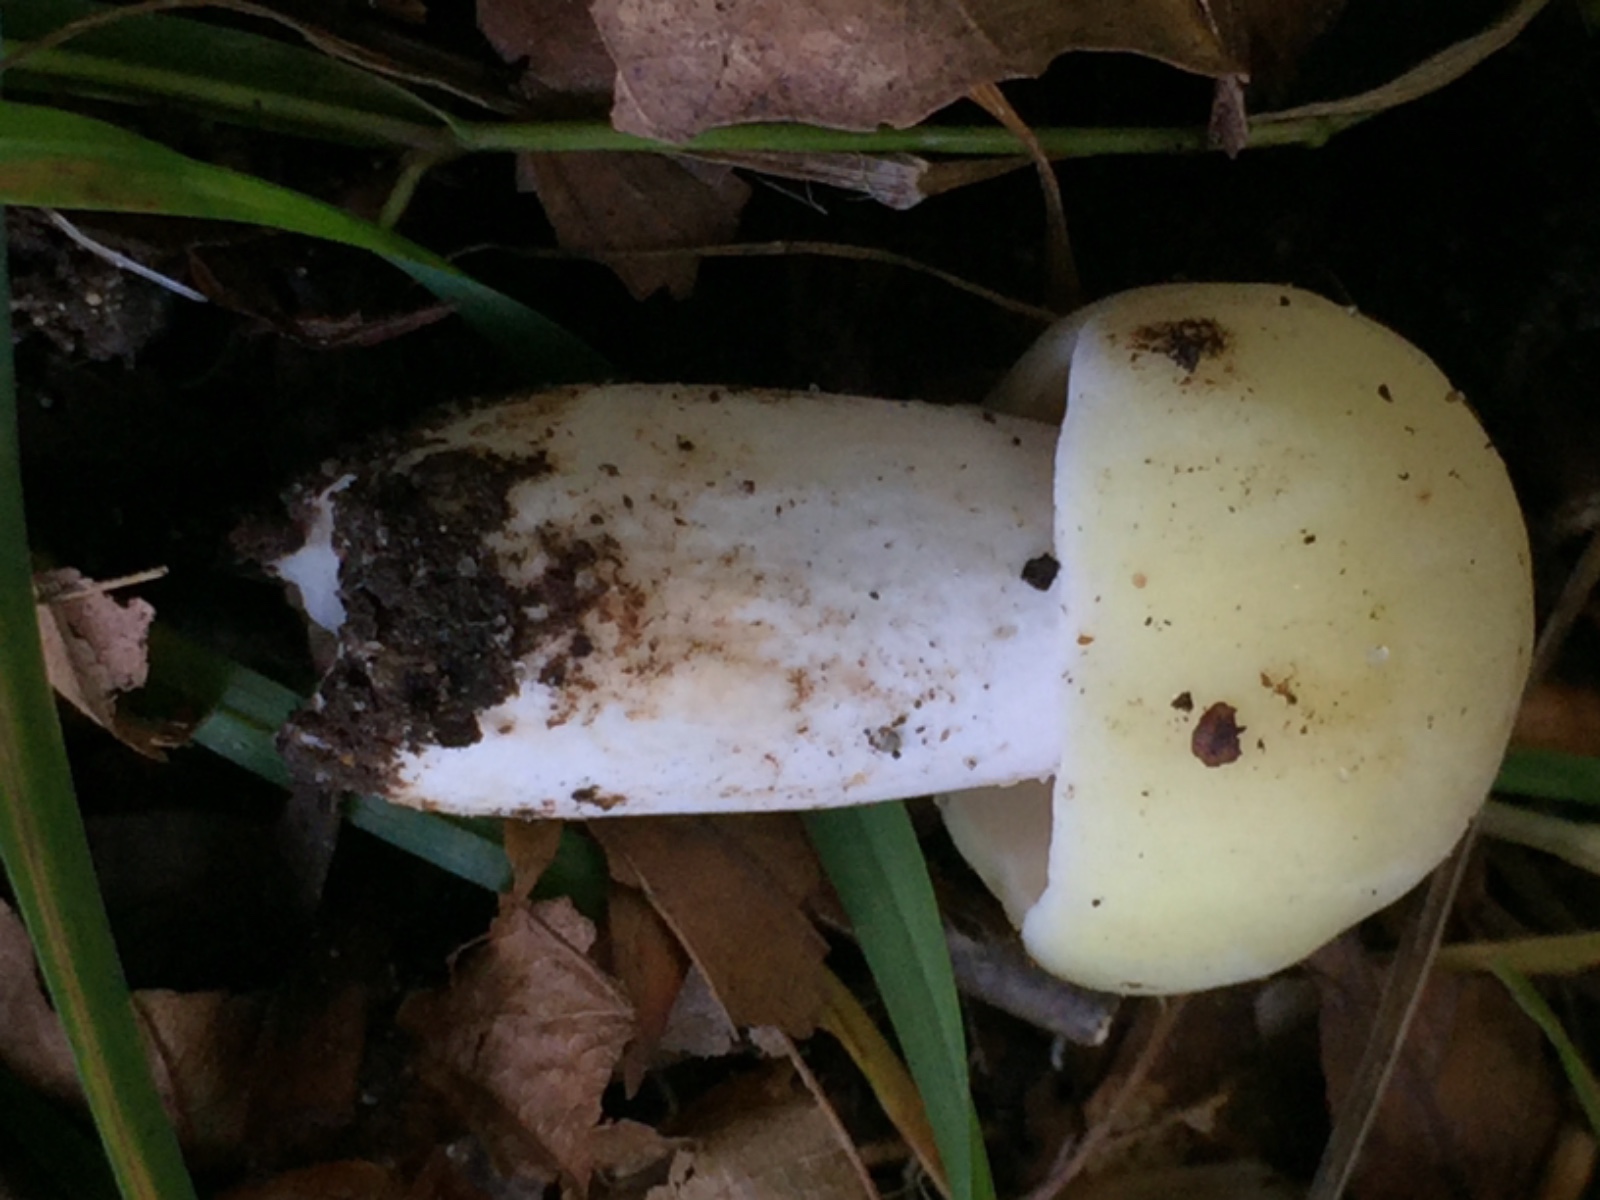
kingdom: Fungi
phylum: Basidiomycota
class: Agaricomycetes
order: Russulales
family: Russulaceae
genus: Russula
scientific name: Russula violeipes
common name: ferskengul skørhat
